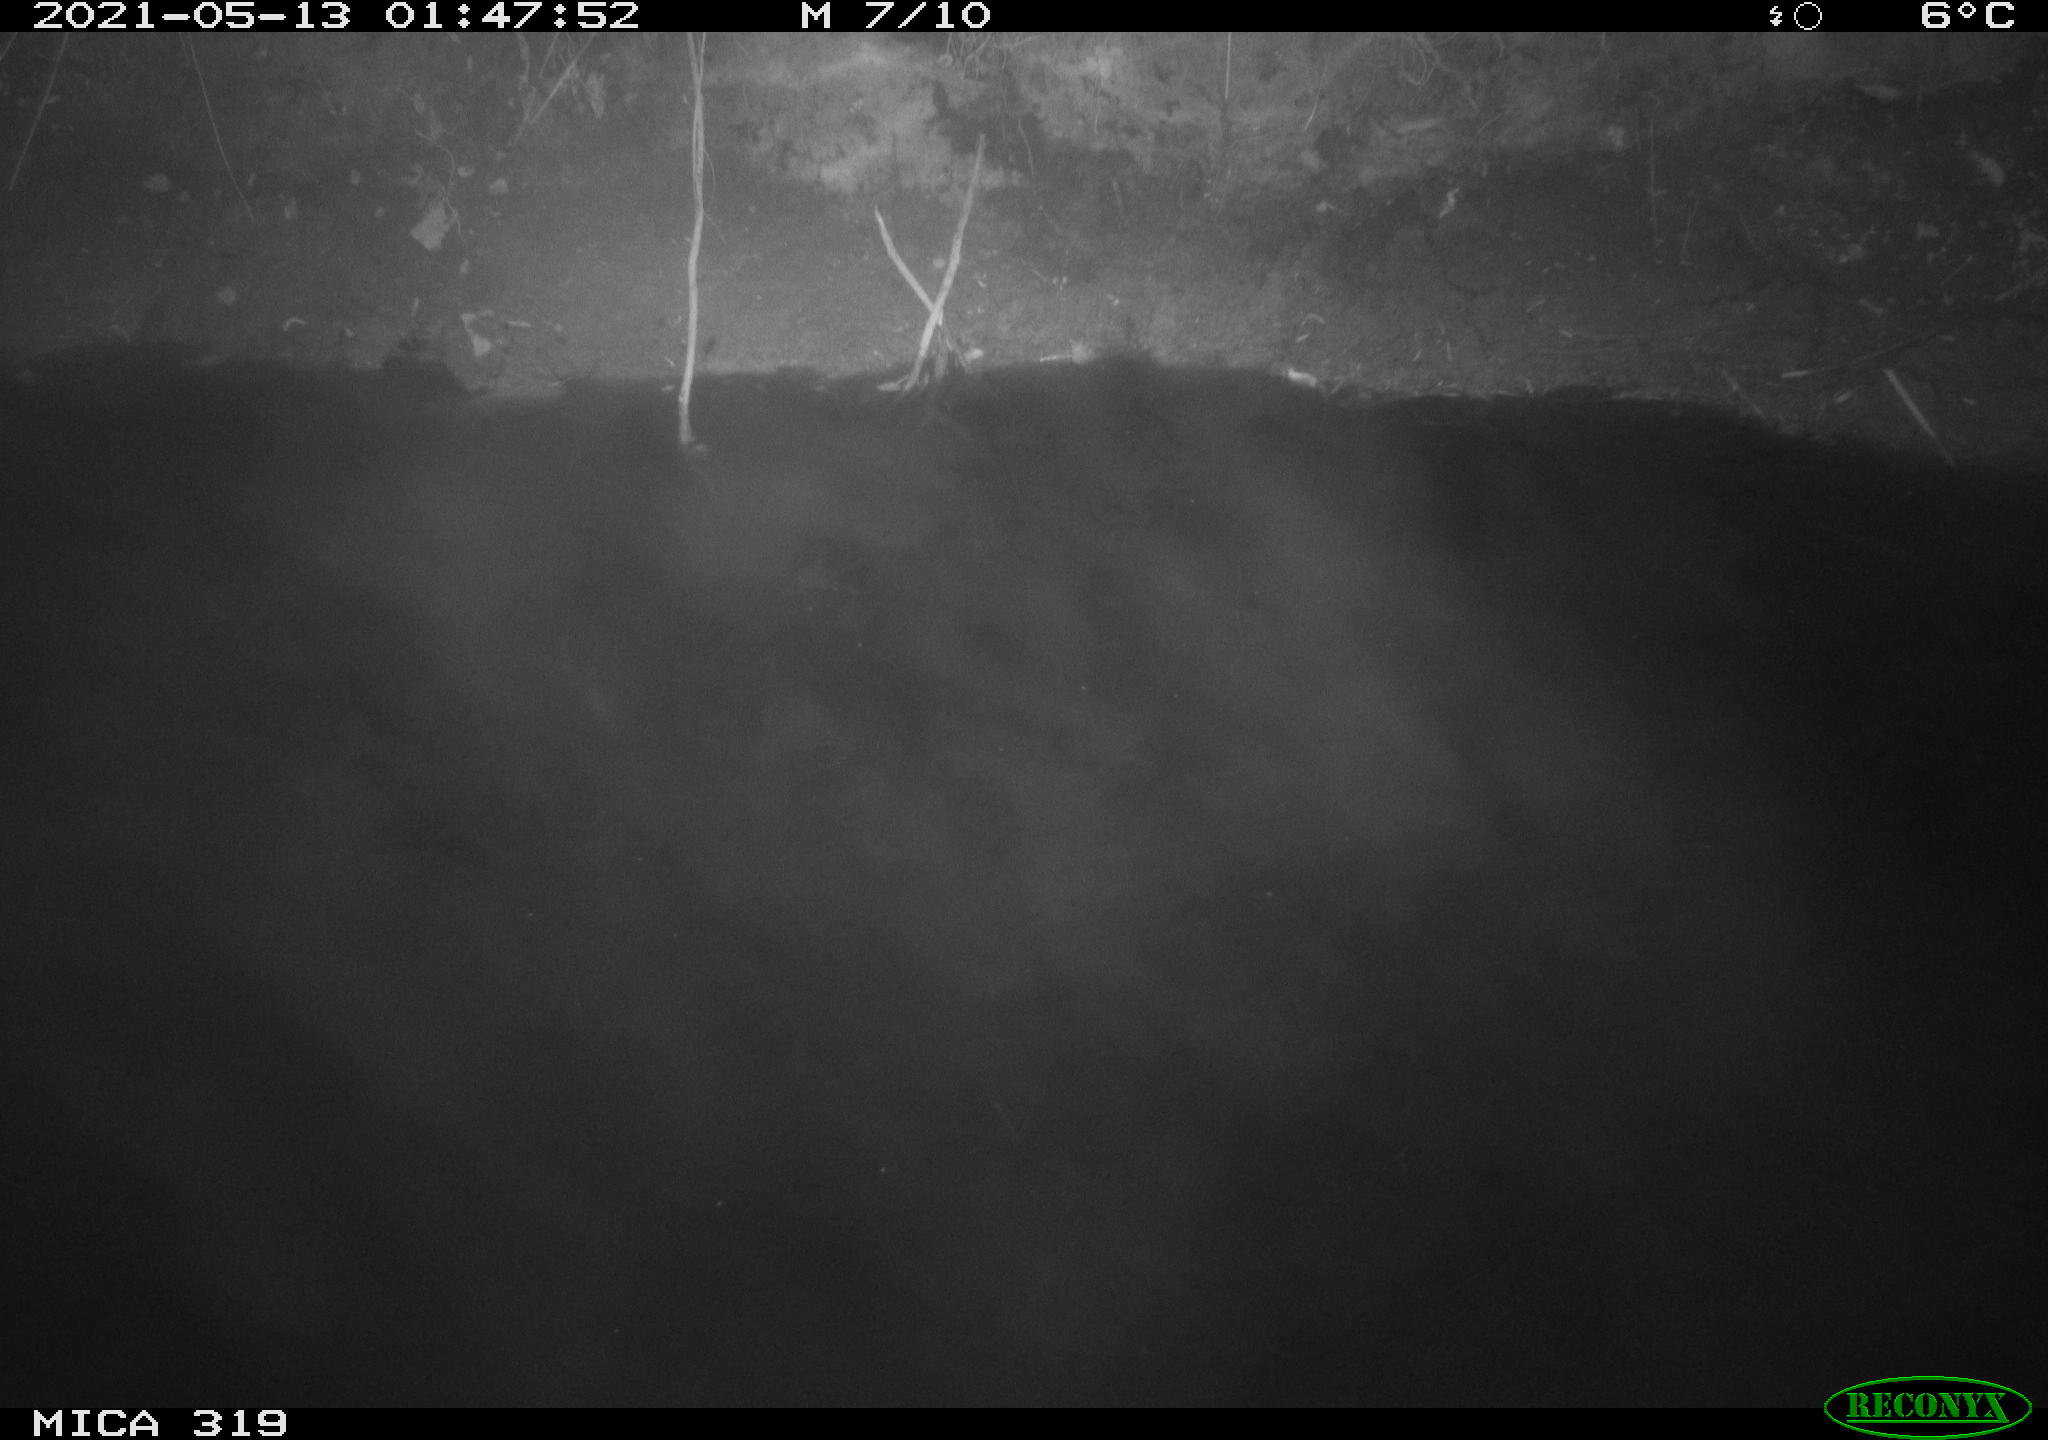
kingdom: Animalia
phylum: Chordata
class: Aves
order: Anseriformes
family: Anatidae
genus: Anas
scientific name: Anas platyrhynchos
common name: Mallard
